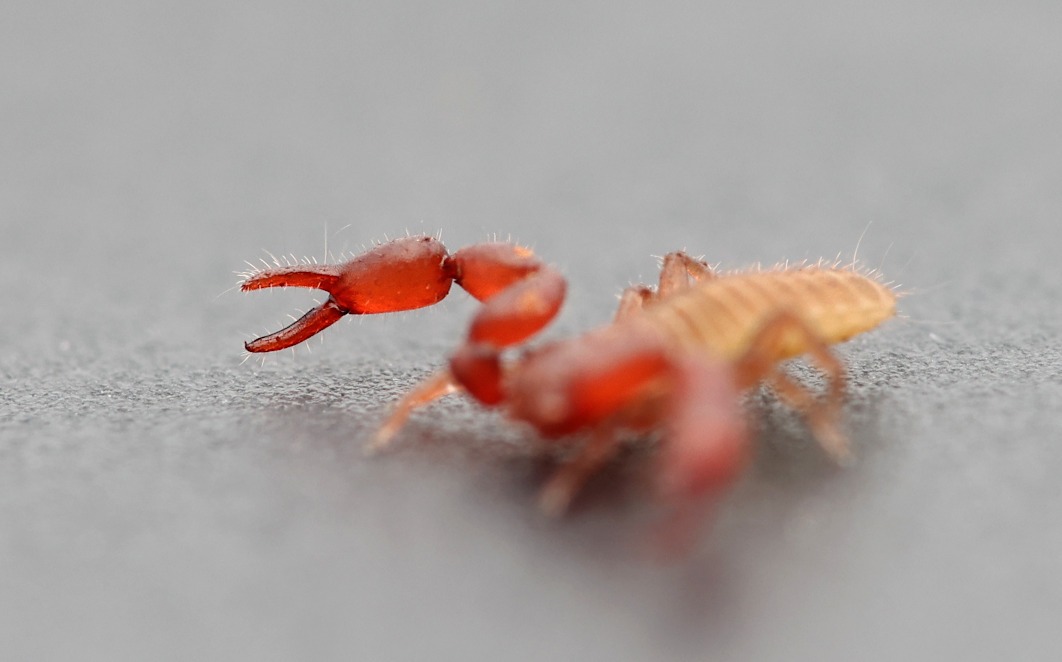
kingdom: Animalia
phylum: Arthropoda
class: Arachnida
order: Pseudoscorpiones
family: Chernetidae
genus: Anthrenochernes
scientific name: Anthrenochernes stellae
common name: Stellas mosskorpion
